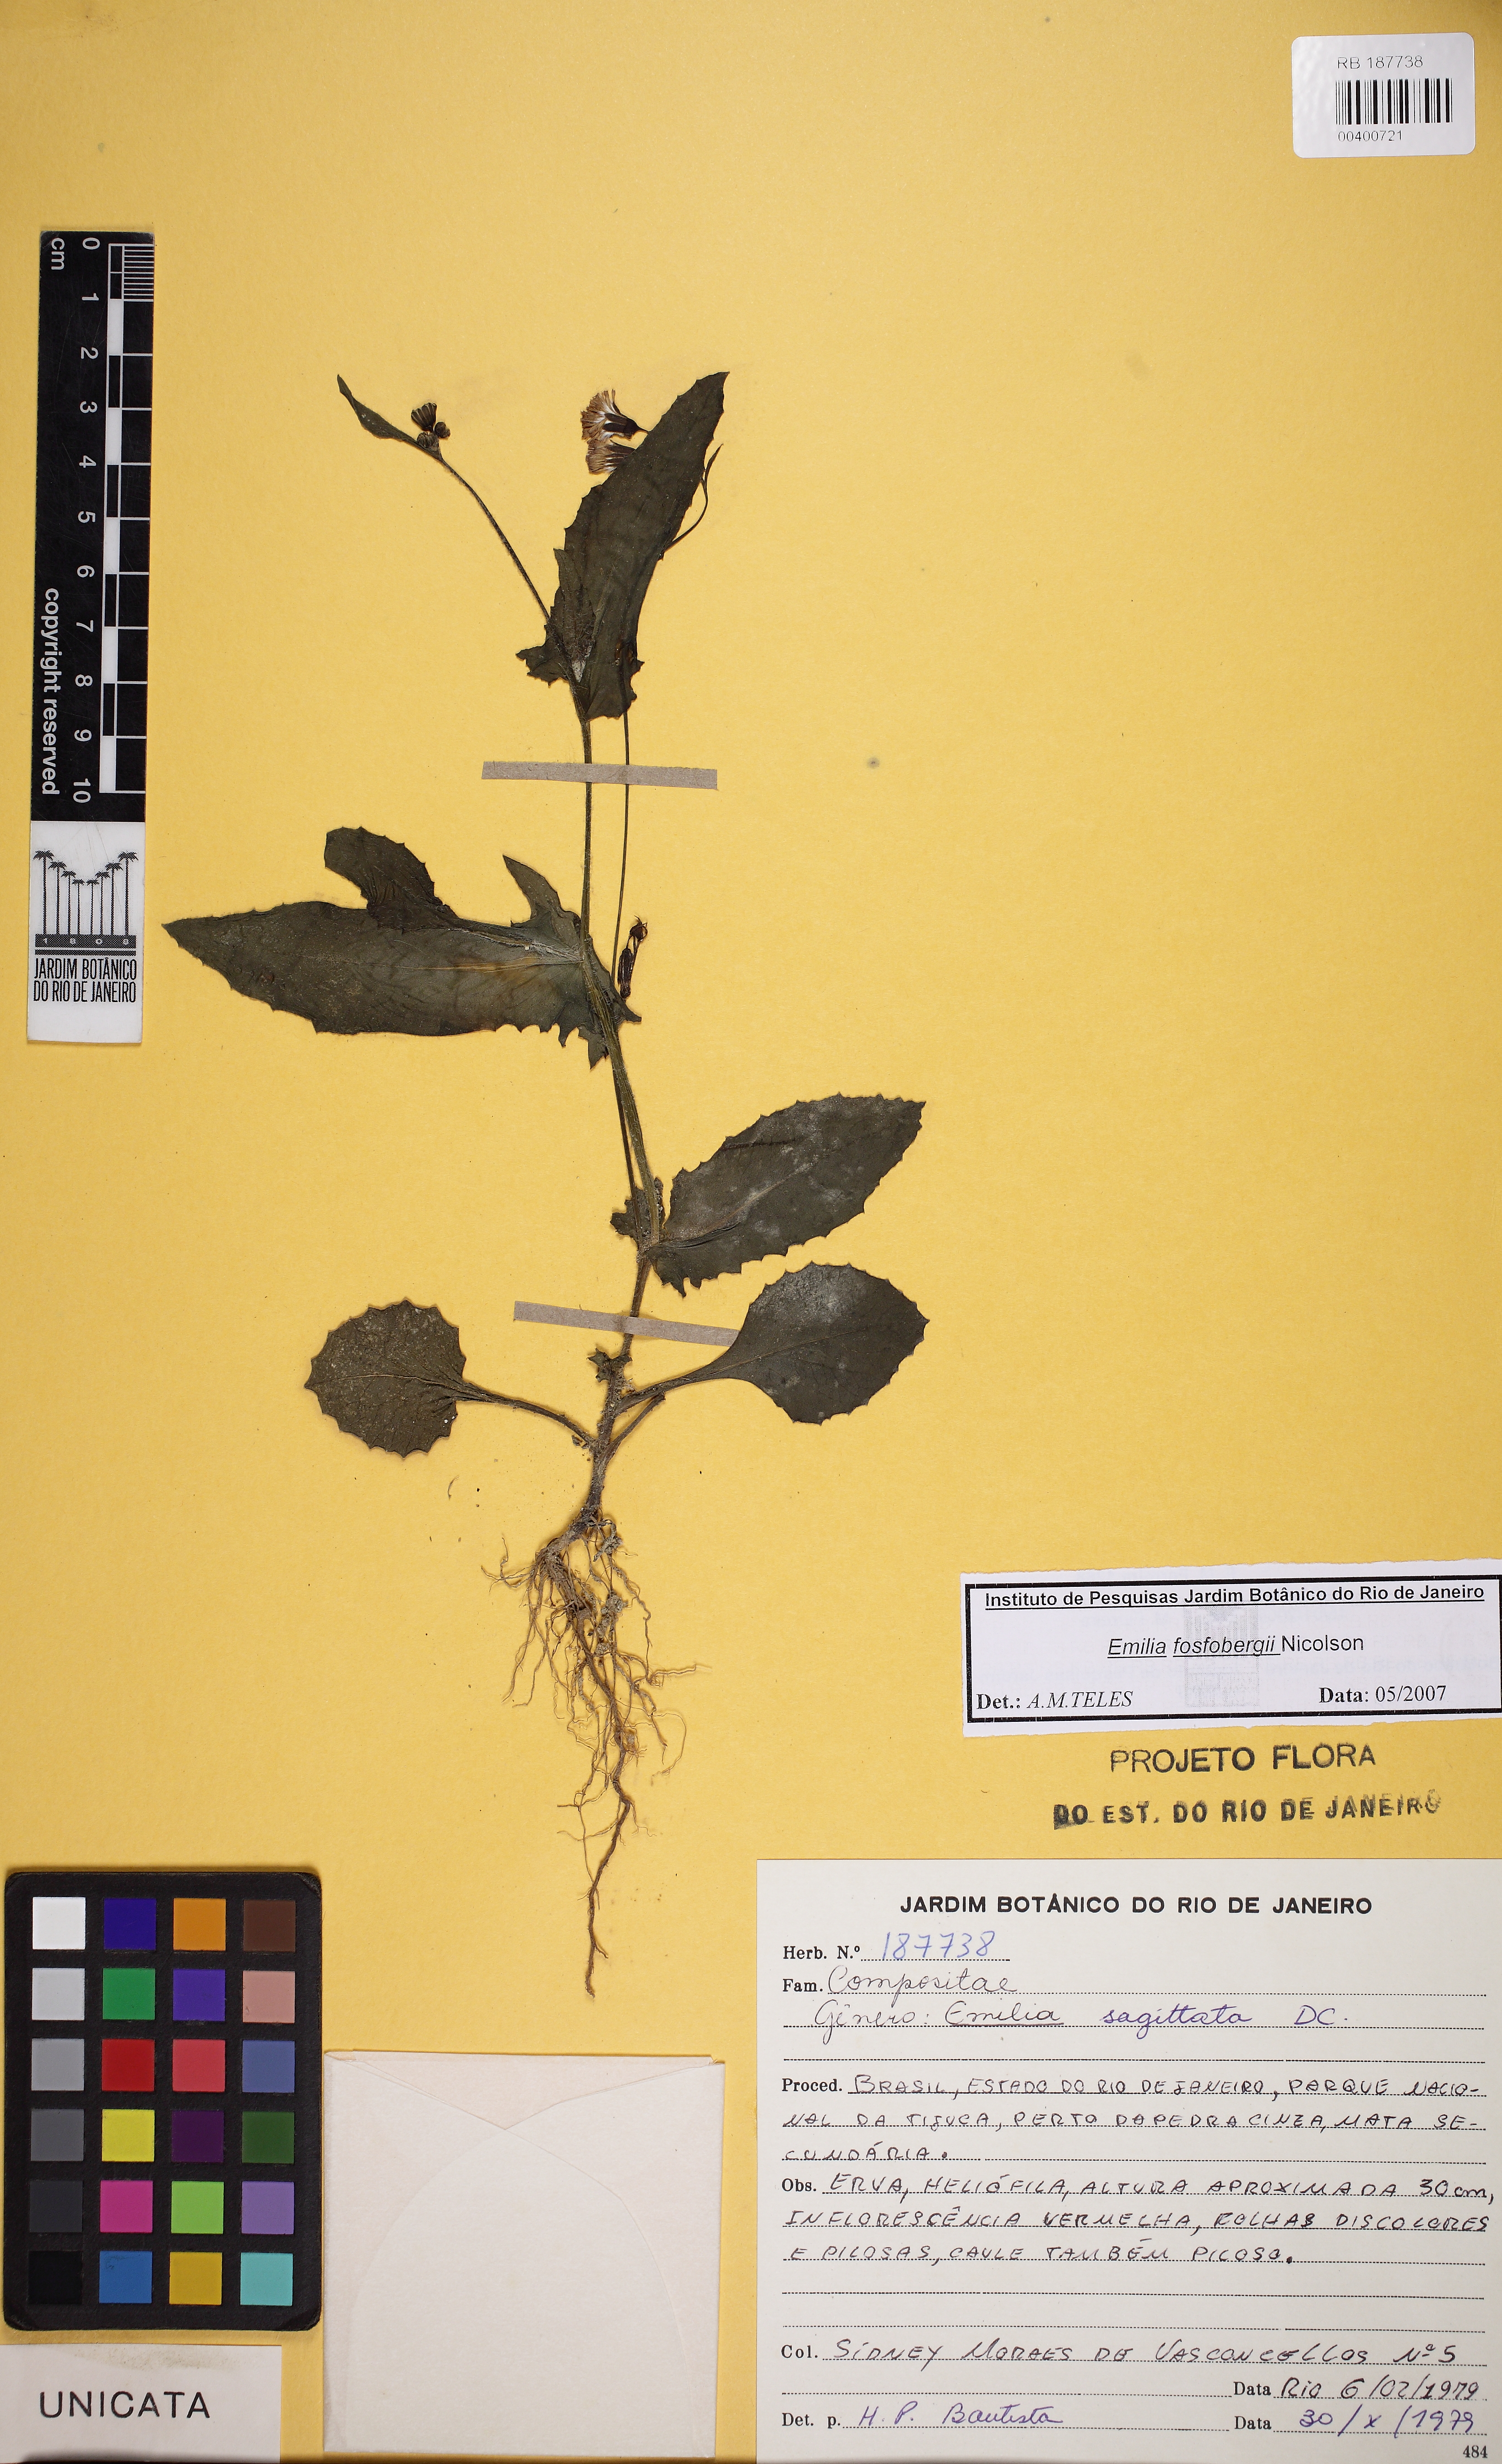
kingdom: Plantae
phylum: Tracheophyta
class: Magnoliopsida
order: Asterales
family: Asteraceae
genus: Emilia
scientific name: Emilia fosbergii
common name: Florida tasselflower
